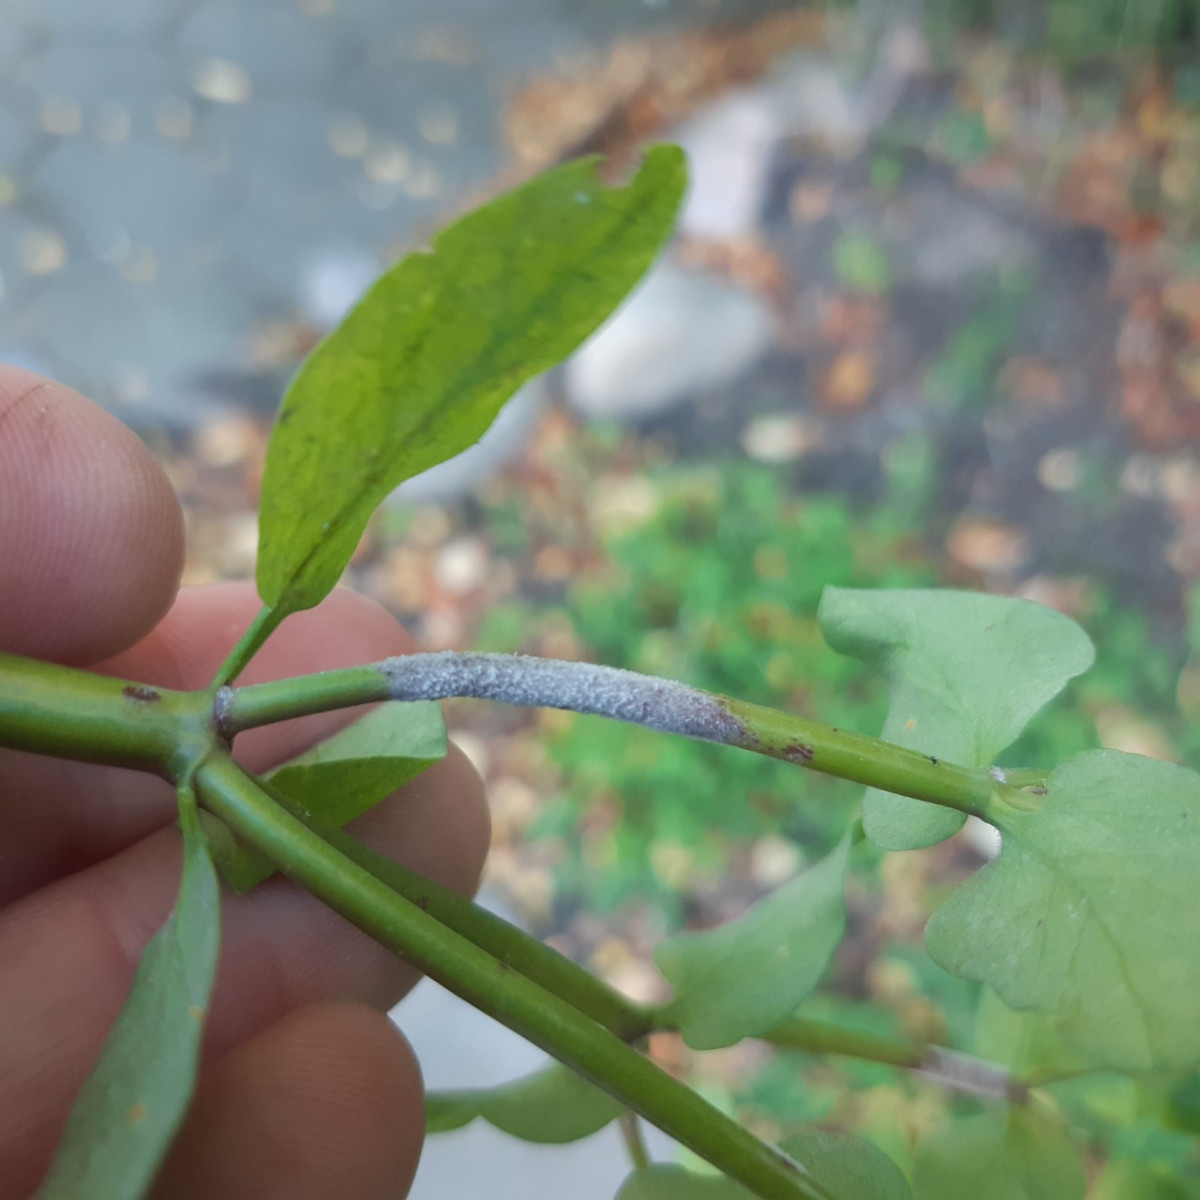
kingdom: Fungi
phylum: Ascomycota
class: Leotiomycetes
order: Helotiales
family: Erysiphaceae
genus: Podosphaera
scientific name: Podosphaera euphorbiae
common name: Eurasian poinsettia powdery mildew
